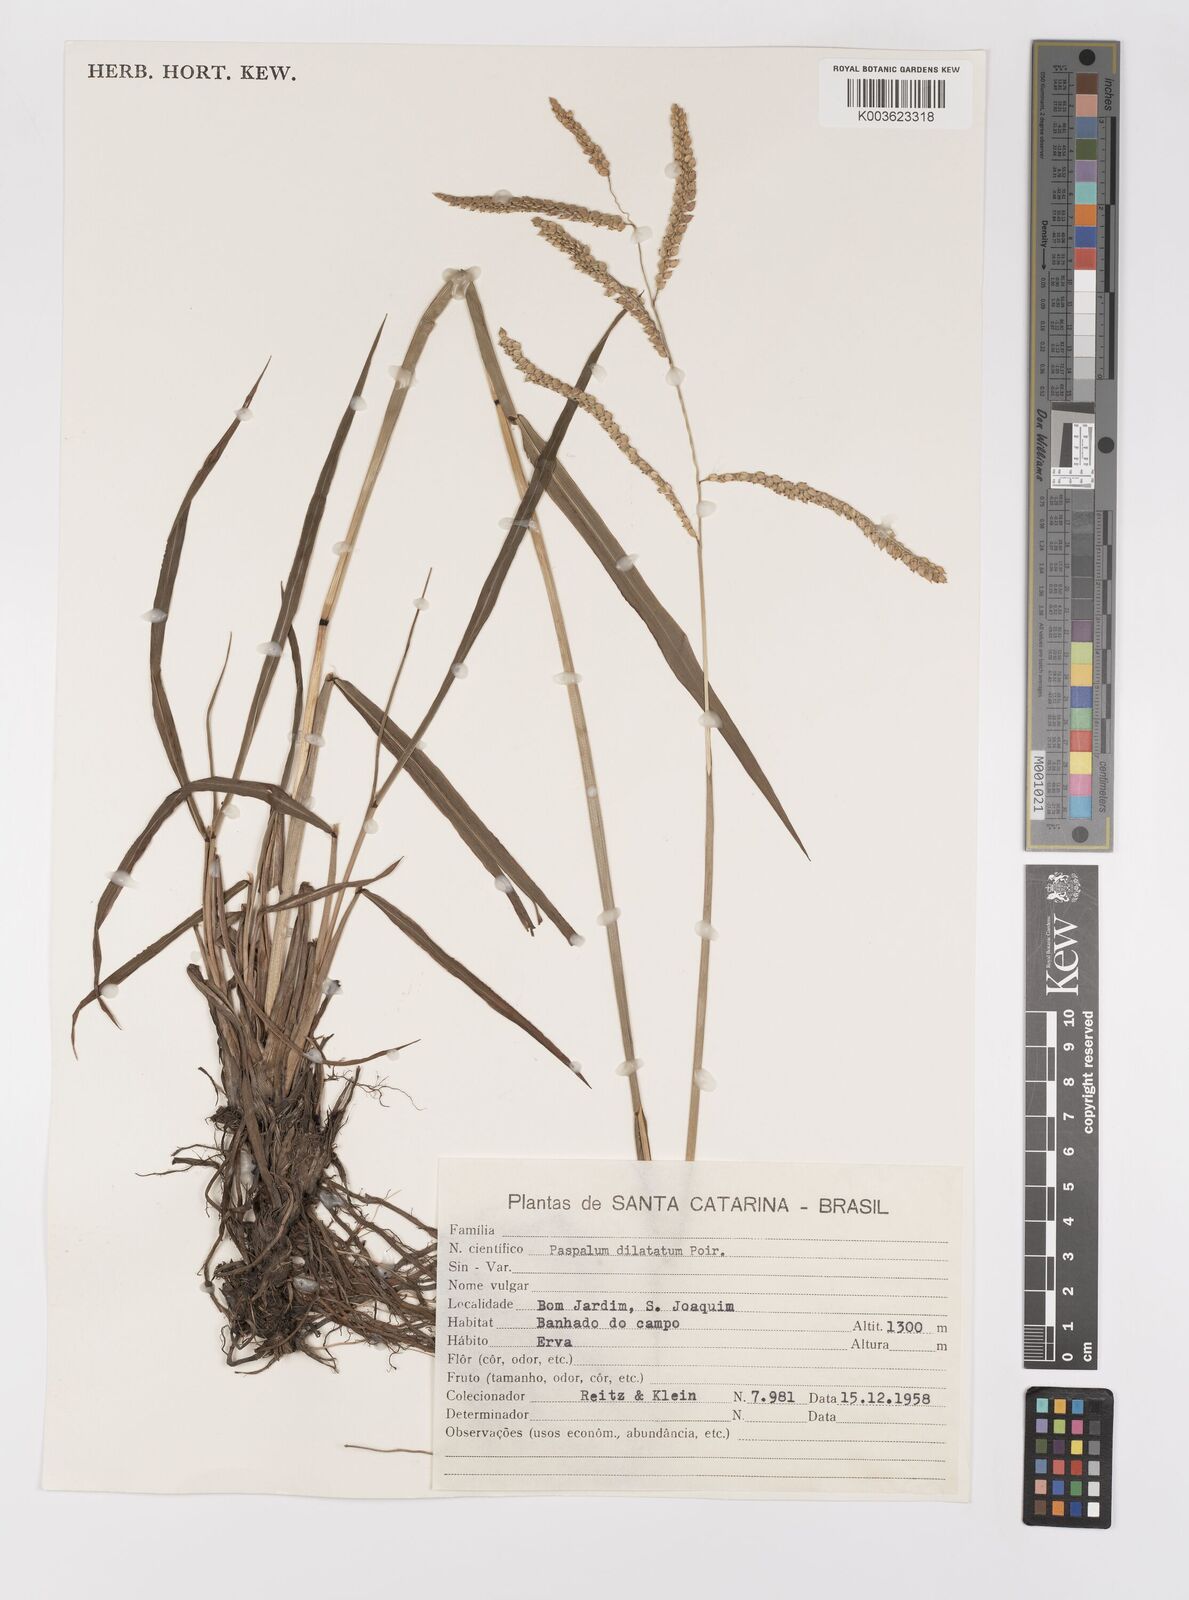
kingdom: Plantae
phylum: Tracheophyta
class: Liliopsida
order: Poales
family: Poaceae
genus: Paspalum
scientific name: Paspalum dilatatum
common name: Dallisgrass
